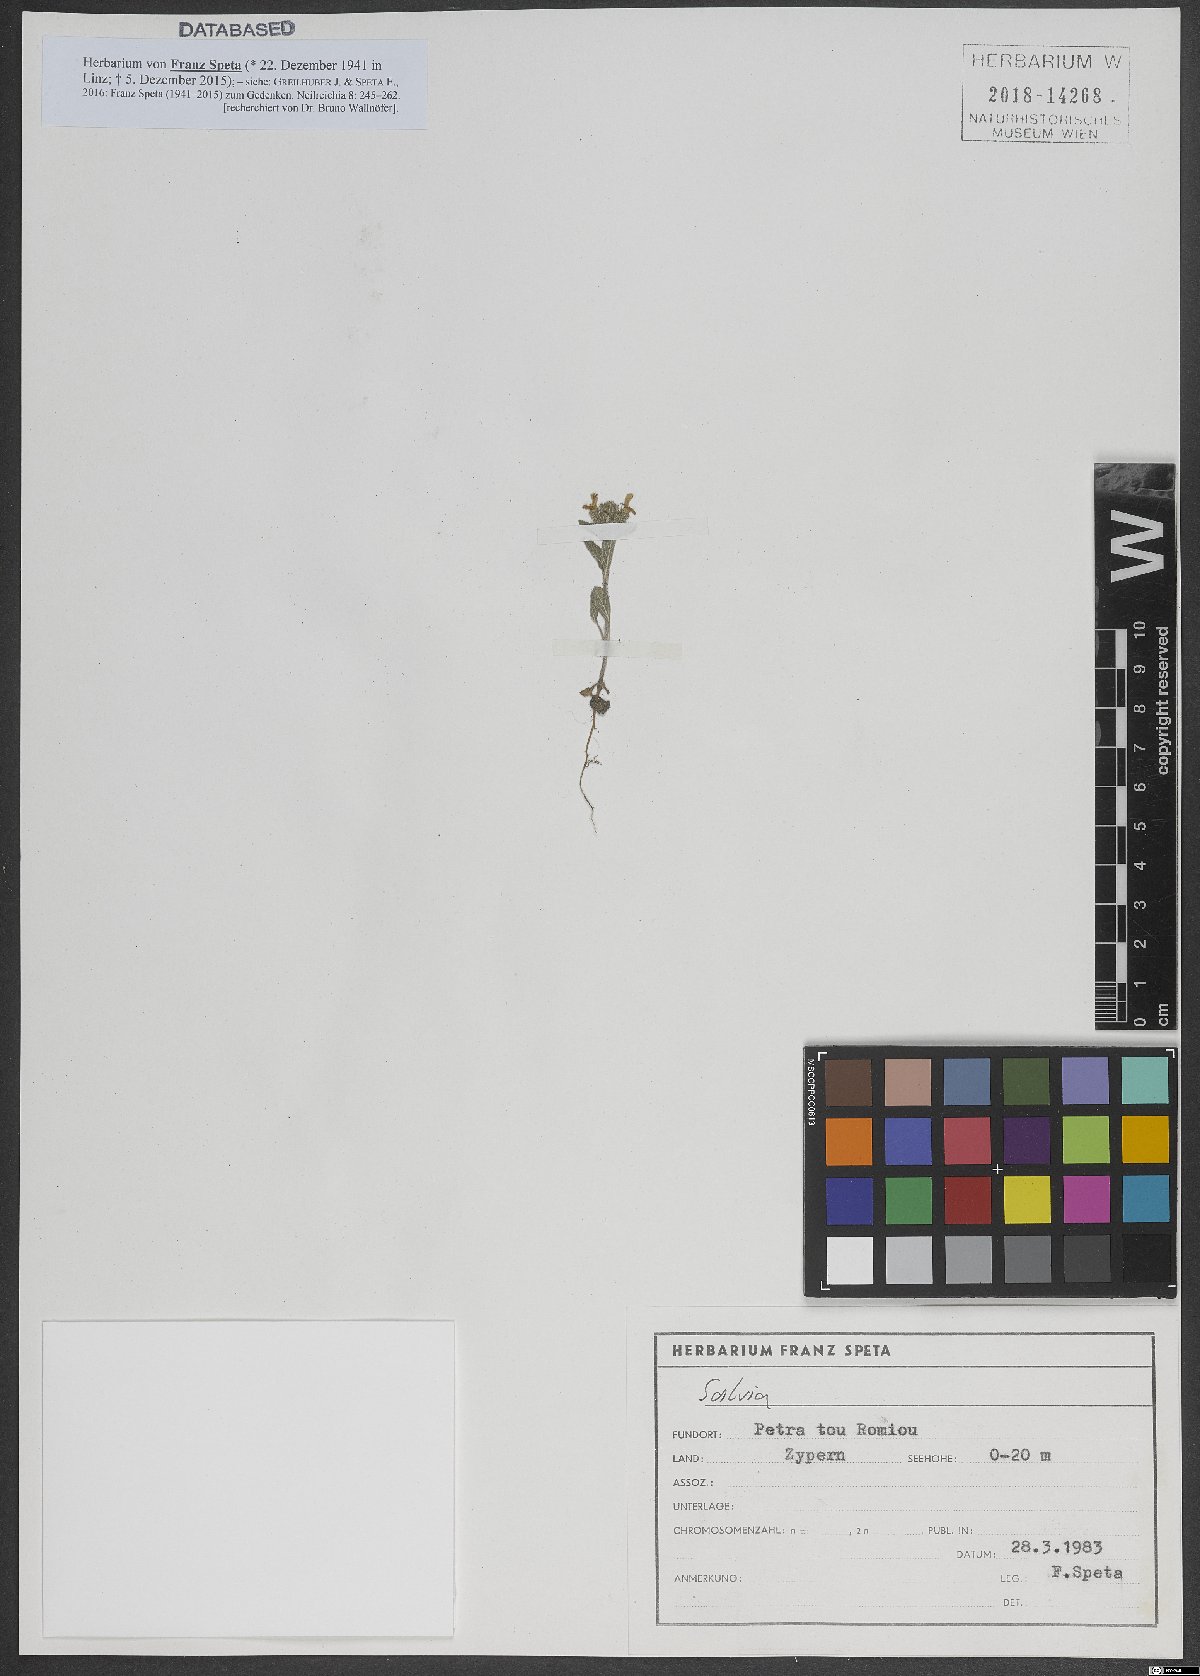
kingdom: Plantae
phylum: Tracheophyta
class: Magnoliopsida
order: Lamiales
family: Lamiaceae
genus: Salvia
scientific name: Salvia
